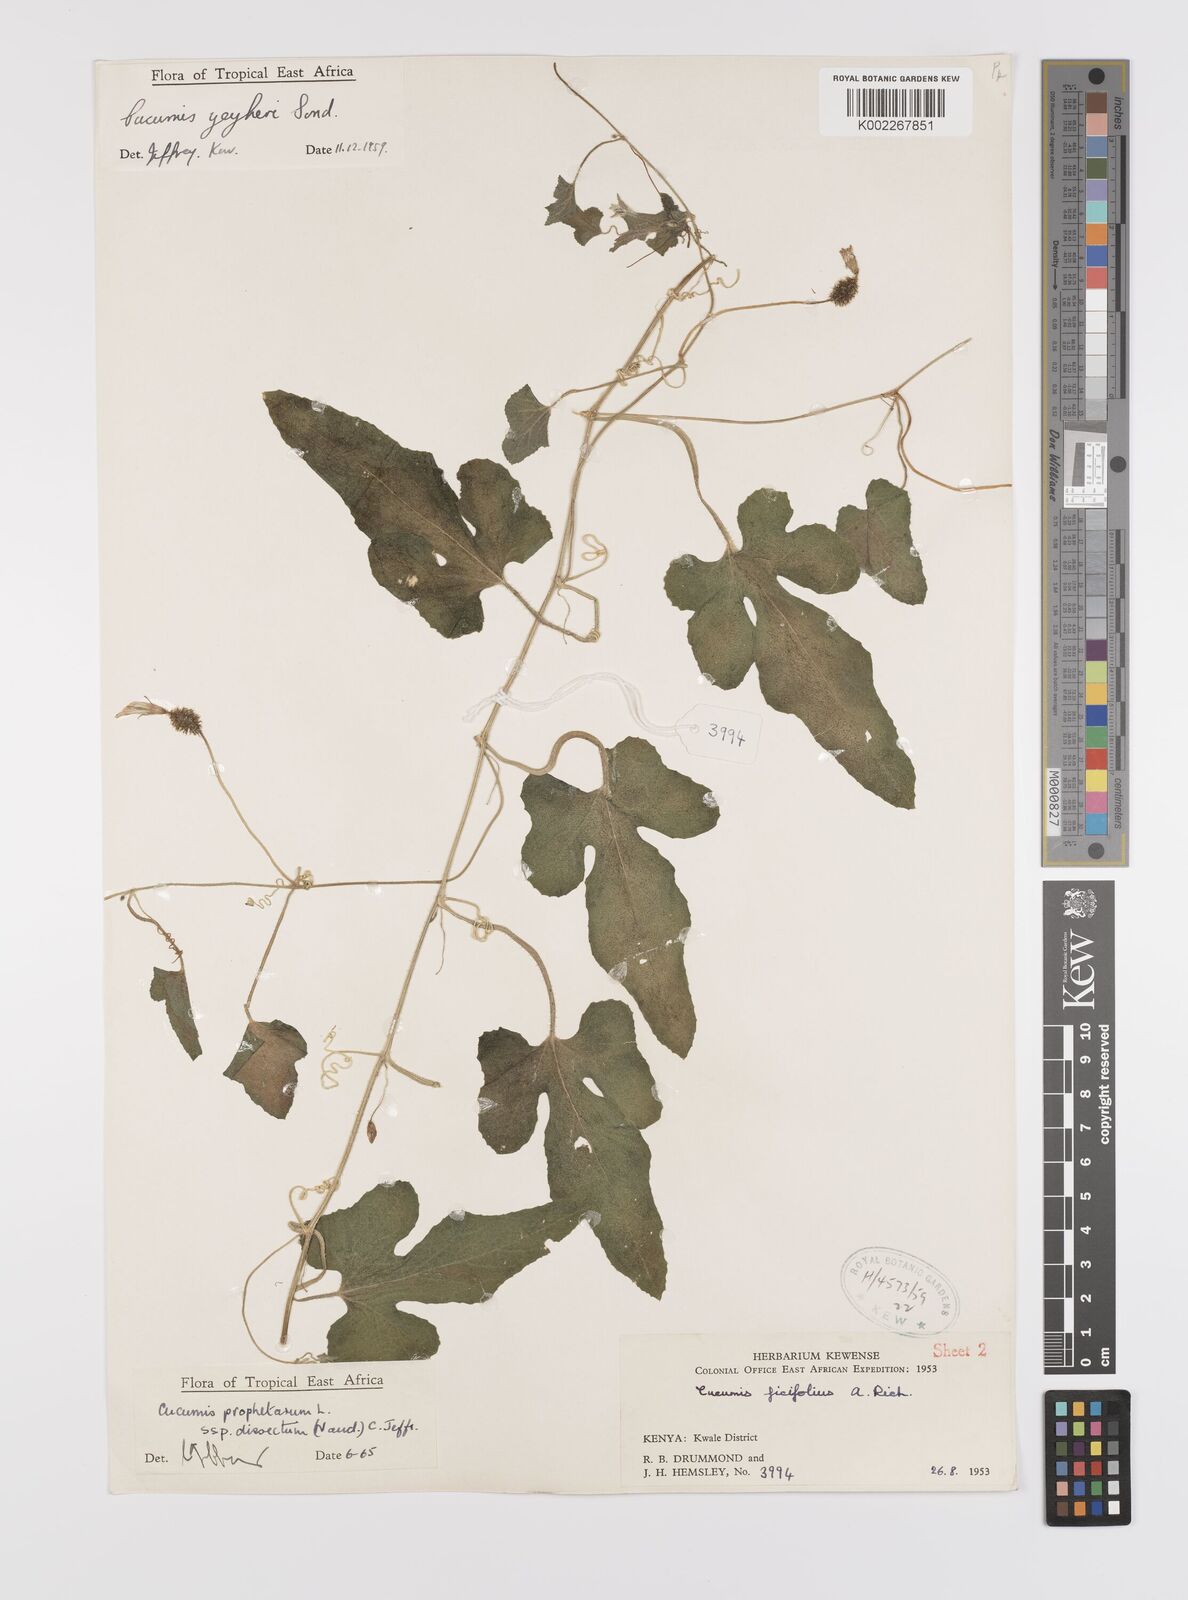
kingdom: Plantae
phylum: Tracheophyta
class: Magnoliopsida
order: Cucurbitales
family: Cucurbitaceae
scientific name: Cucurbitaceae
